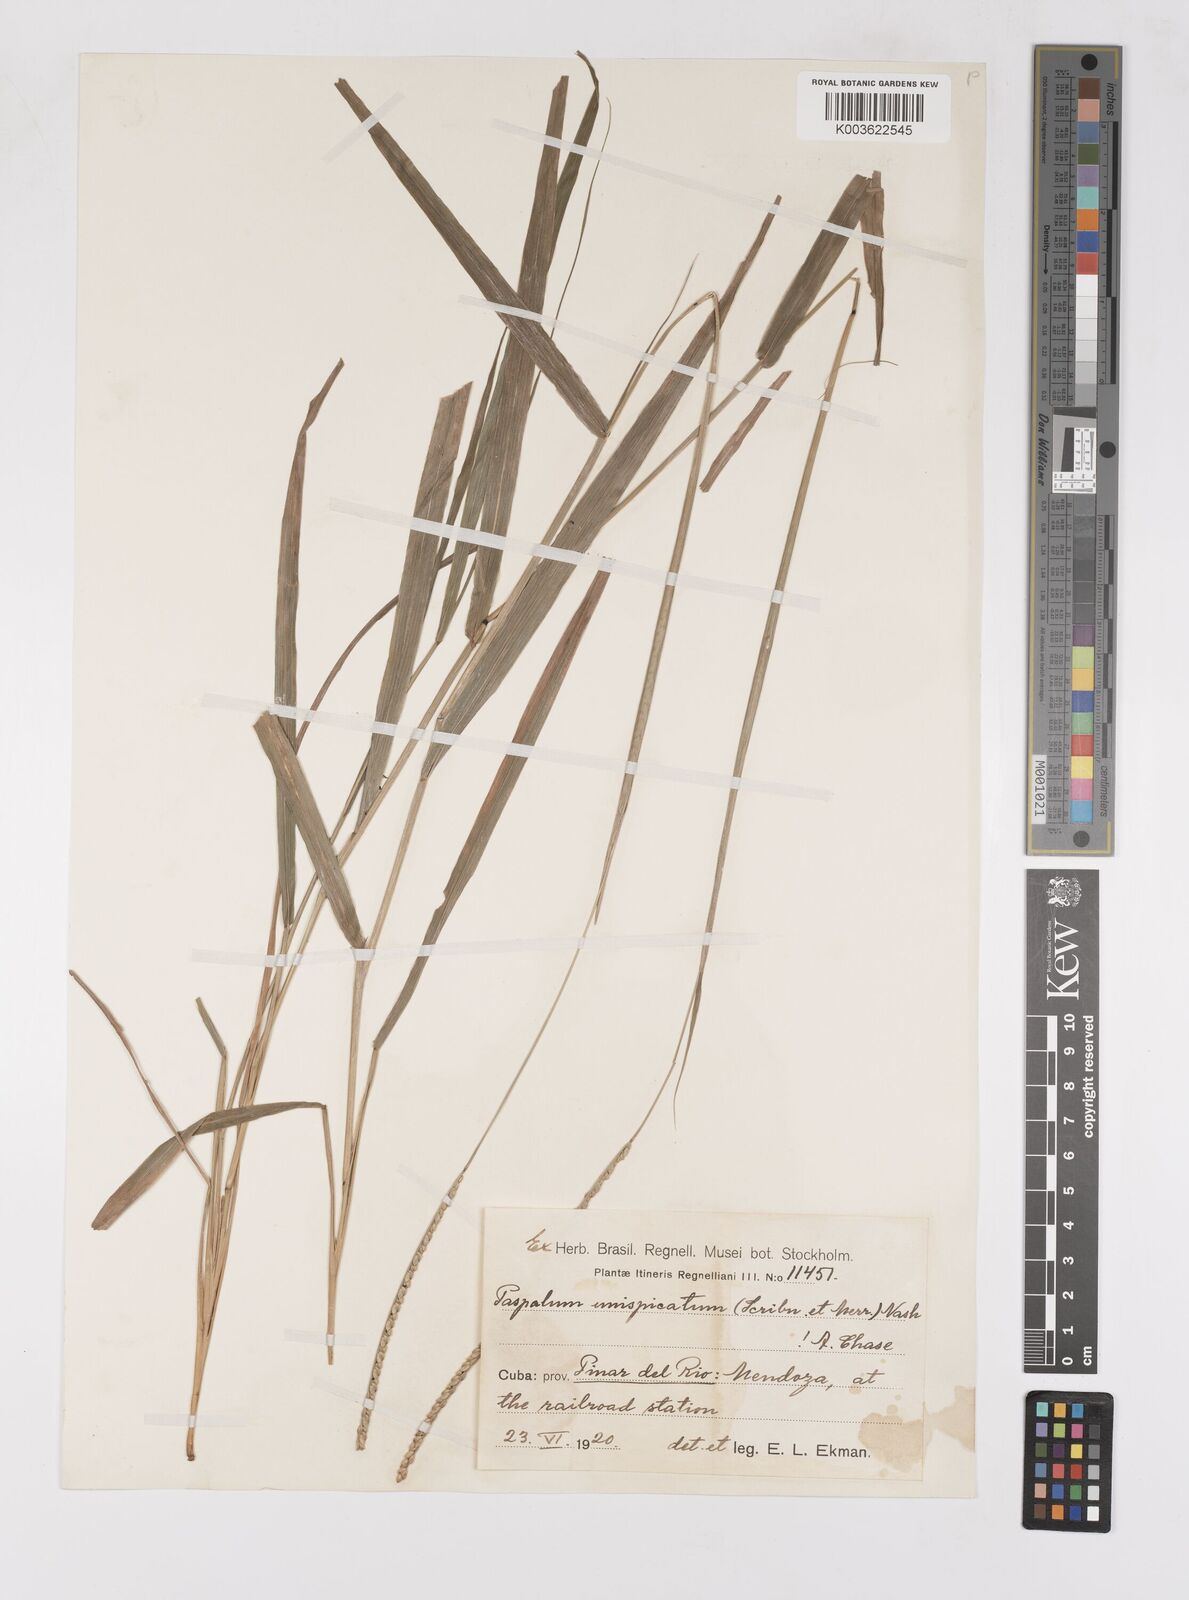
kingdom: Plantae
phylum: Tracheophyta
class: Liliopsida
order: Poales
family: Poaceae
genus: Paspalum
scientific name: Paspalum unispicatum
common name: Onespike paspalum
